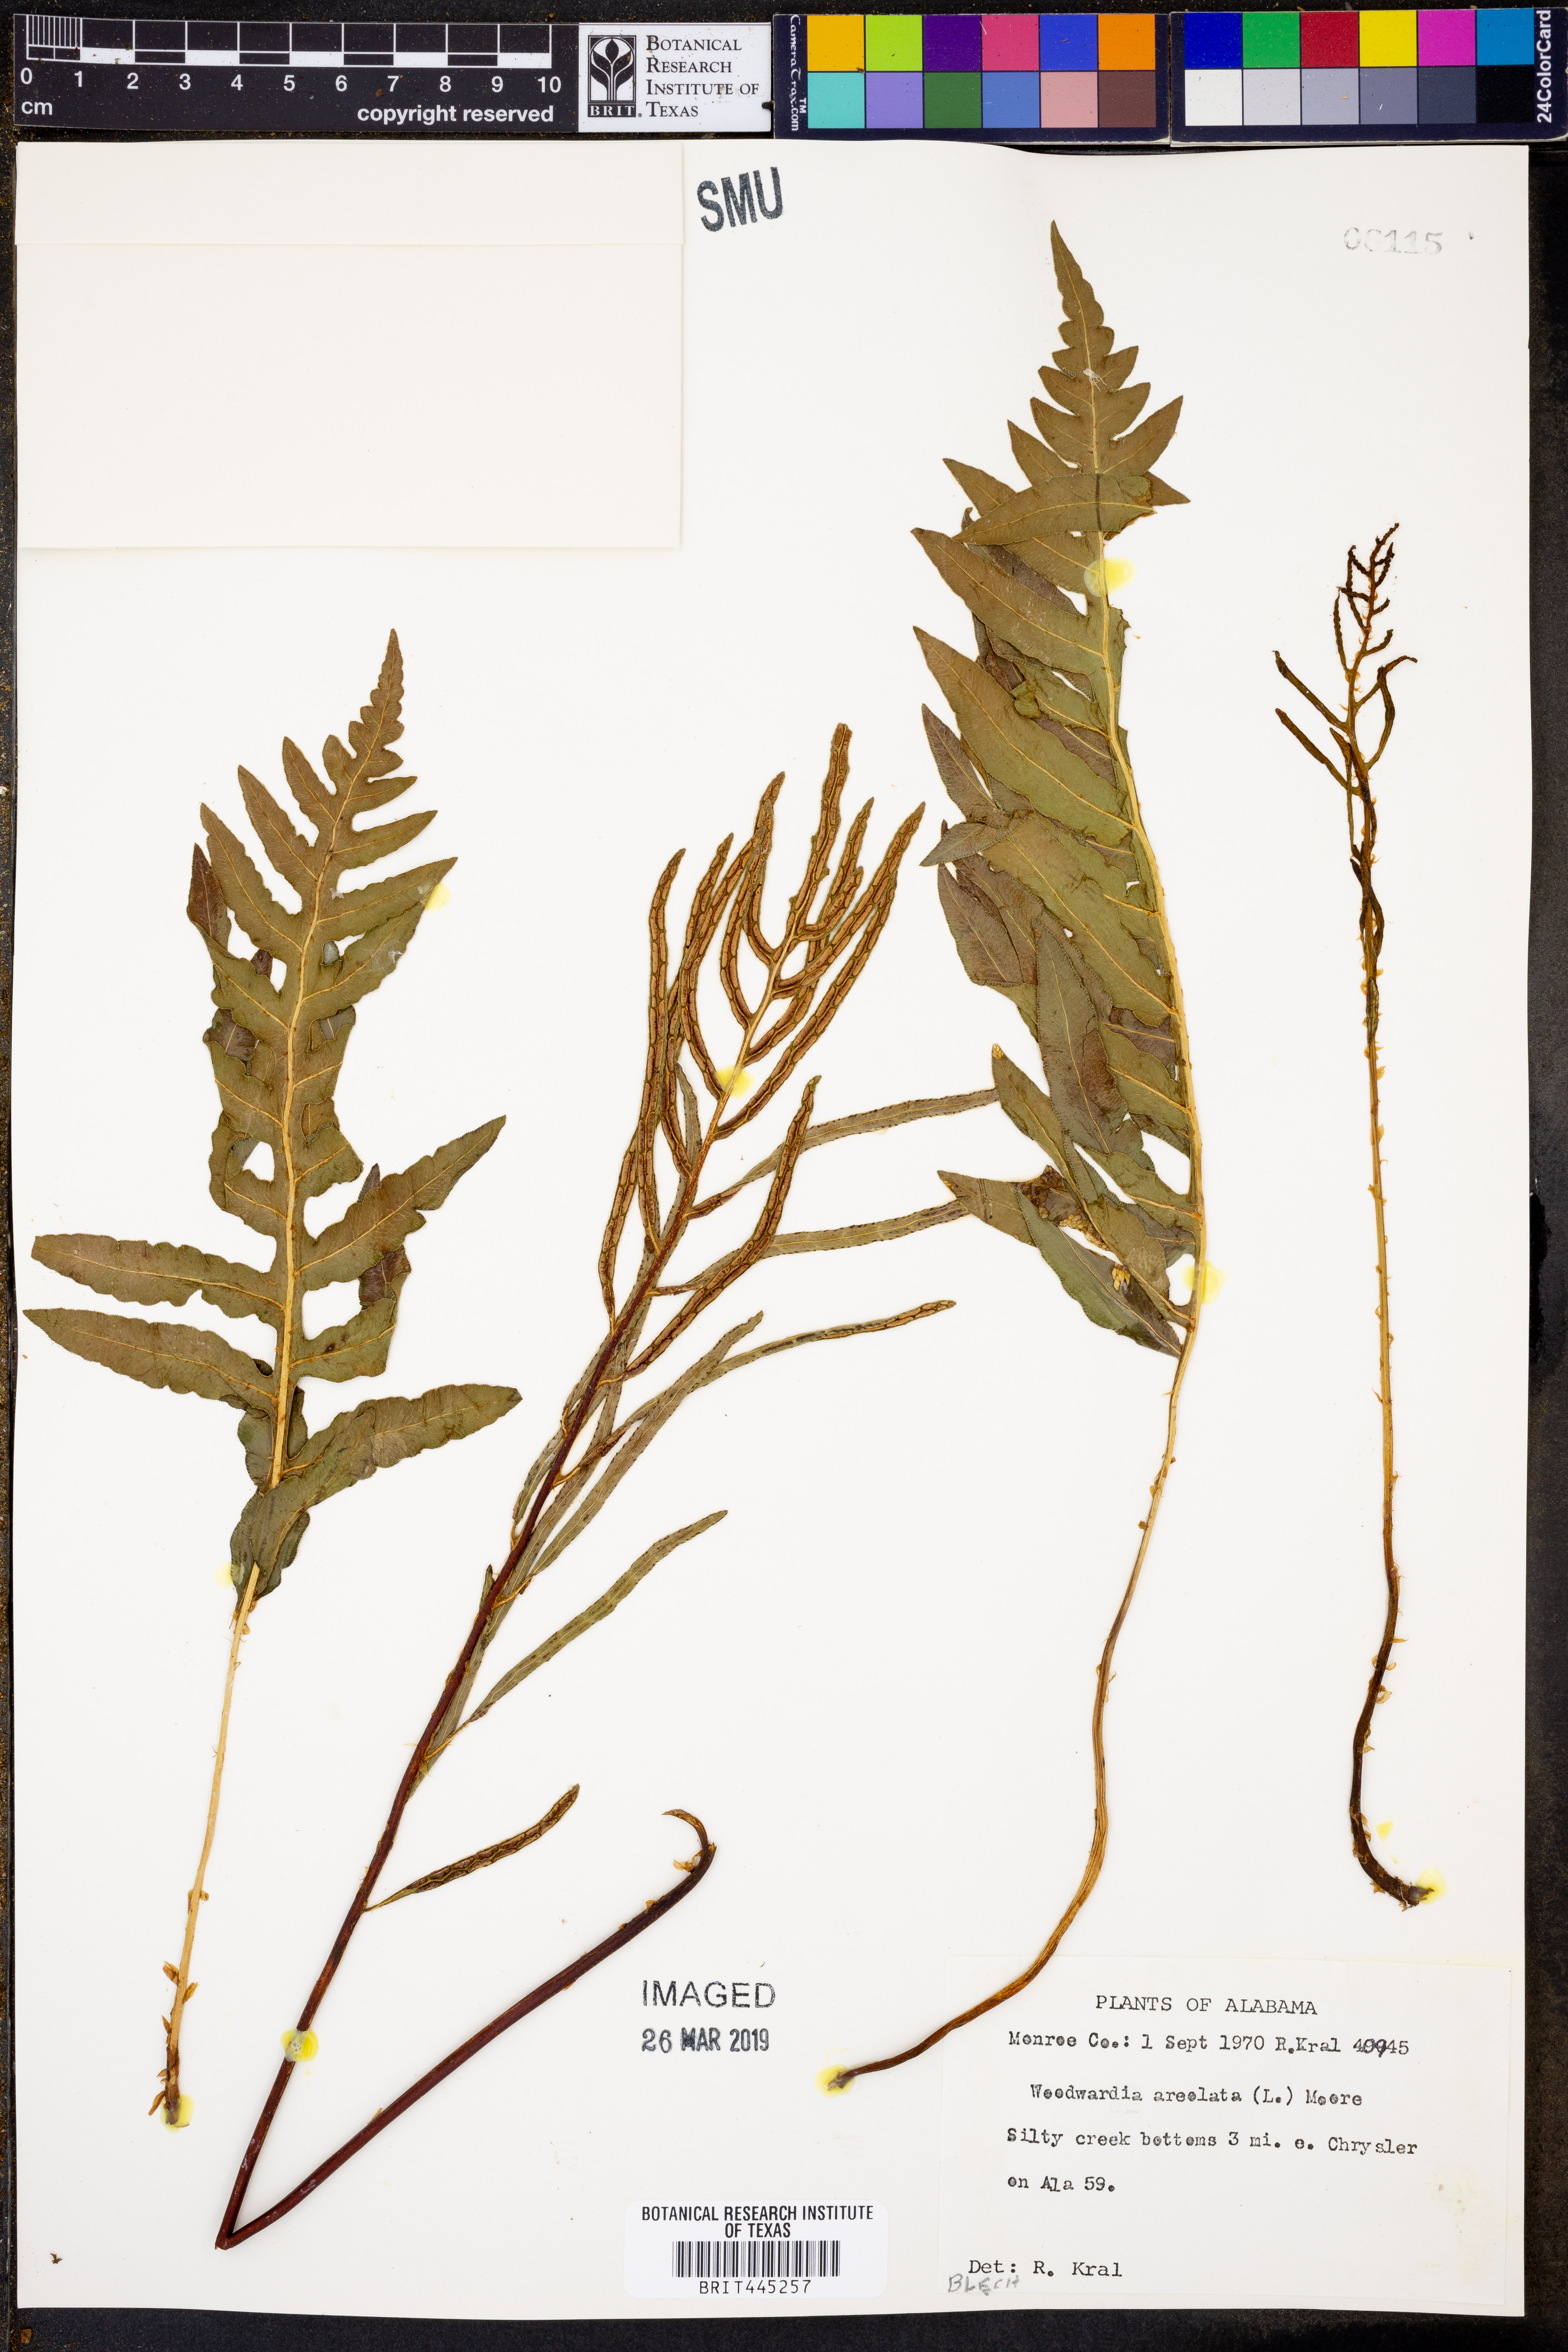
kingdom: Plantae
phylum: Tracheophyta
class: Polypodiopsida
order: Polypodiales
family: Blechnaceae
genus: Lorinseria
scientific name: Lorinseria areolata
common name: Dwarf chain fern
